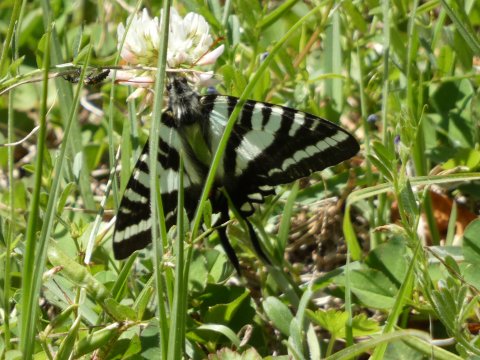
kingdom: Animalia
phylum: Arthropoda
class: Insecta
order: Lepidoptera
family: Papilionidae
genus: Protographium
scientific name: Protographium marcellus
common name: Zebra Swallowtail
